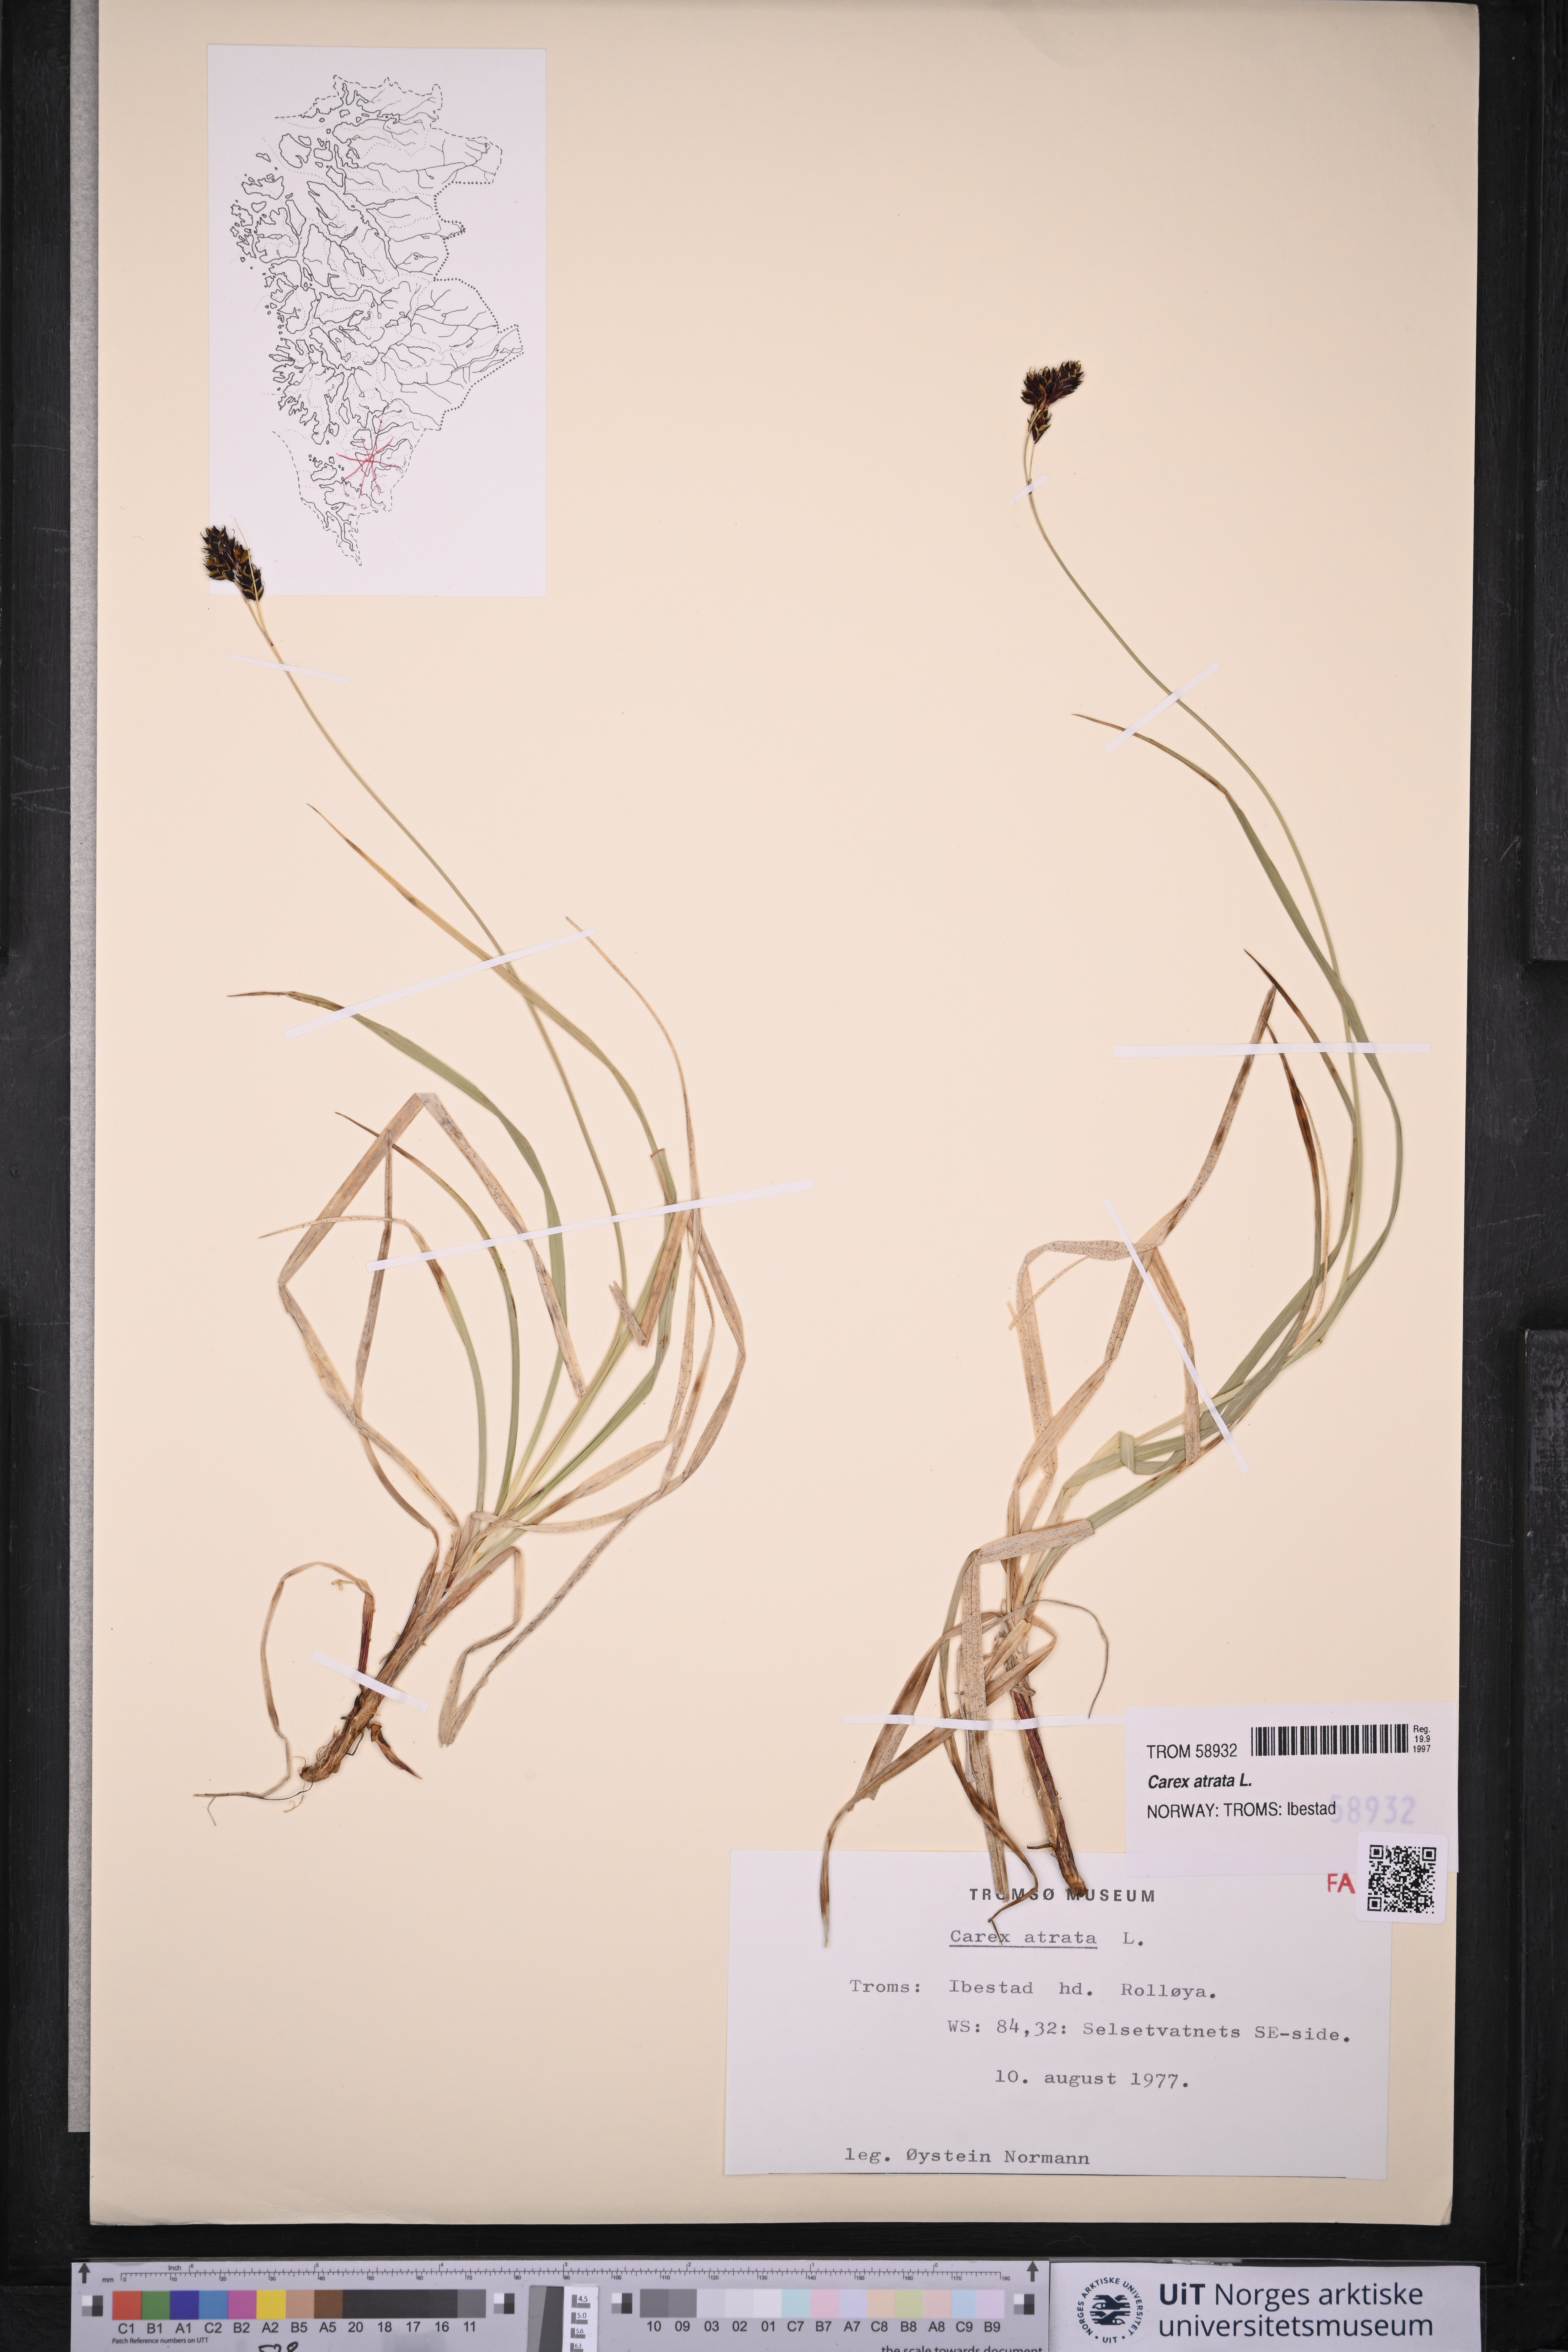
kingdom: Plantae
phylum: Tracheophyta
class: Liliopsida
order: Poales
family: Cyperaceae
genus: Carex
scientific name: Carex atrata
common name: Black alpine sedge
